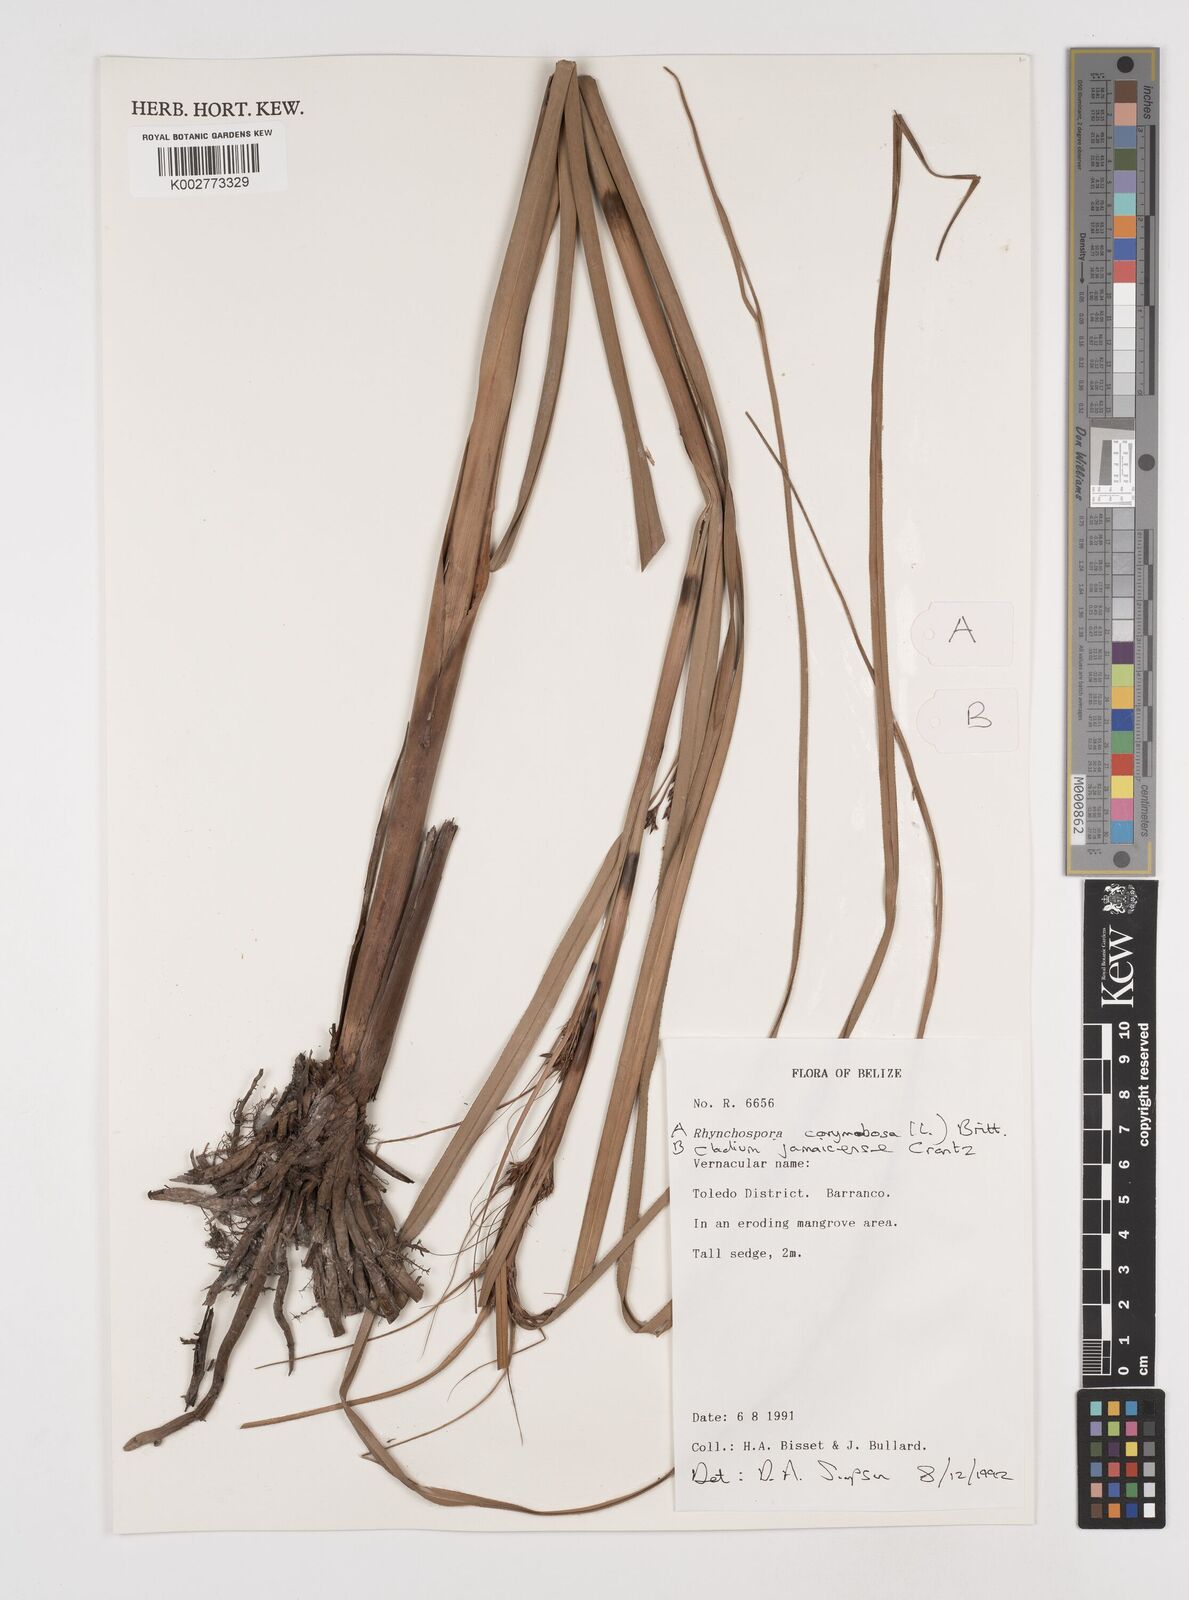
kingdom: Plantae
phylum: Tracheophyta
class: Liliopsida
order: Poales
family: Cyperaceae
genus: Rhynchospora
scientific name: Rhynchospora corymbosa
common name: Golden beak sedge
